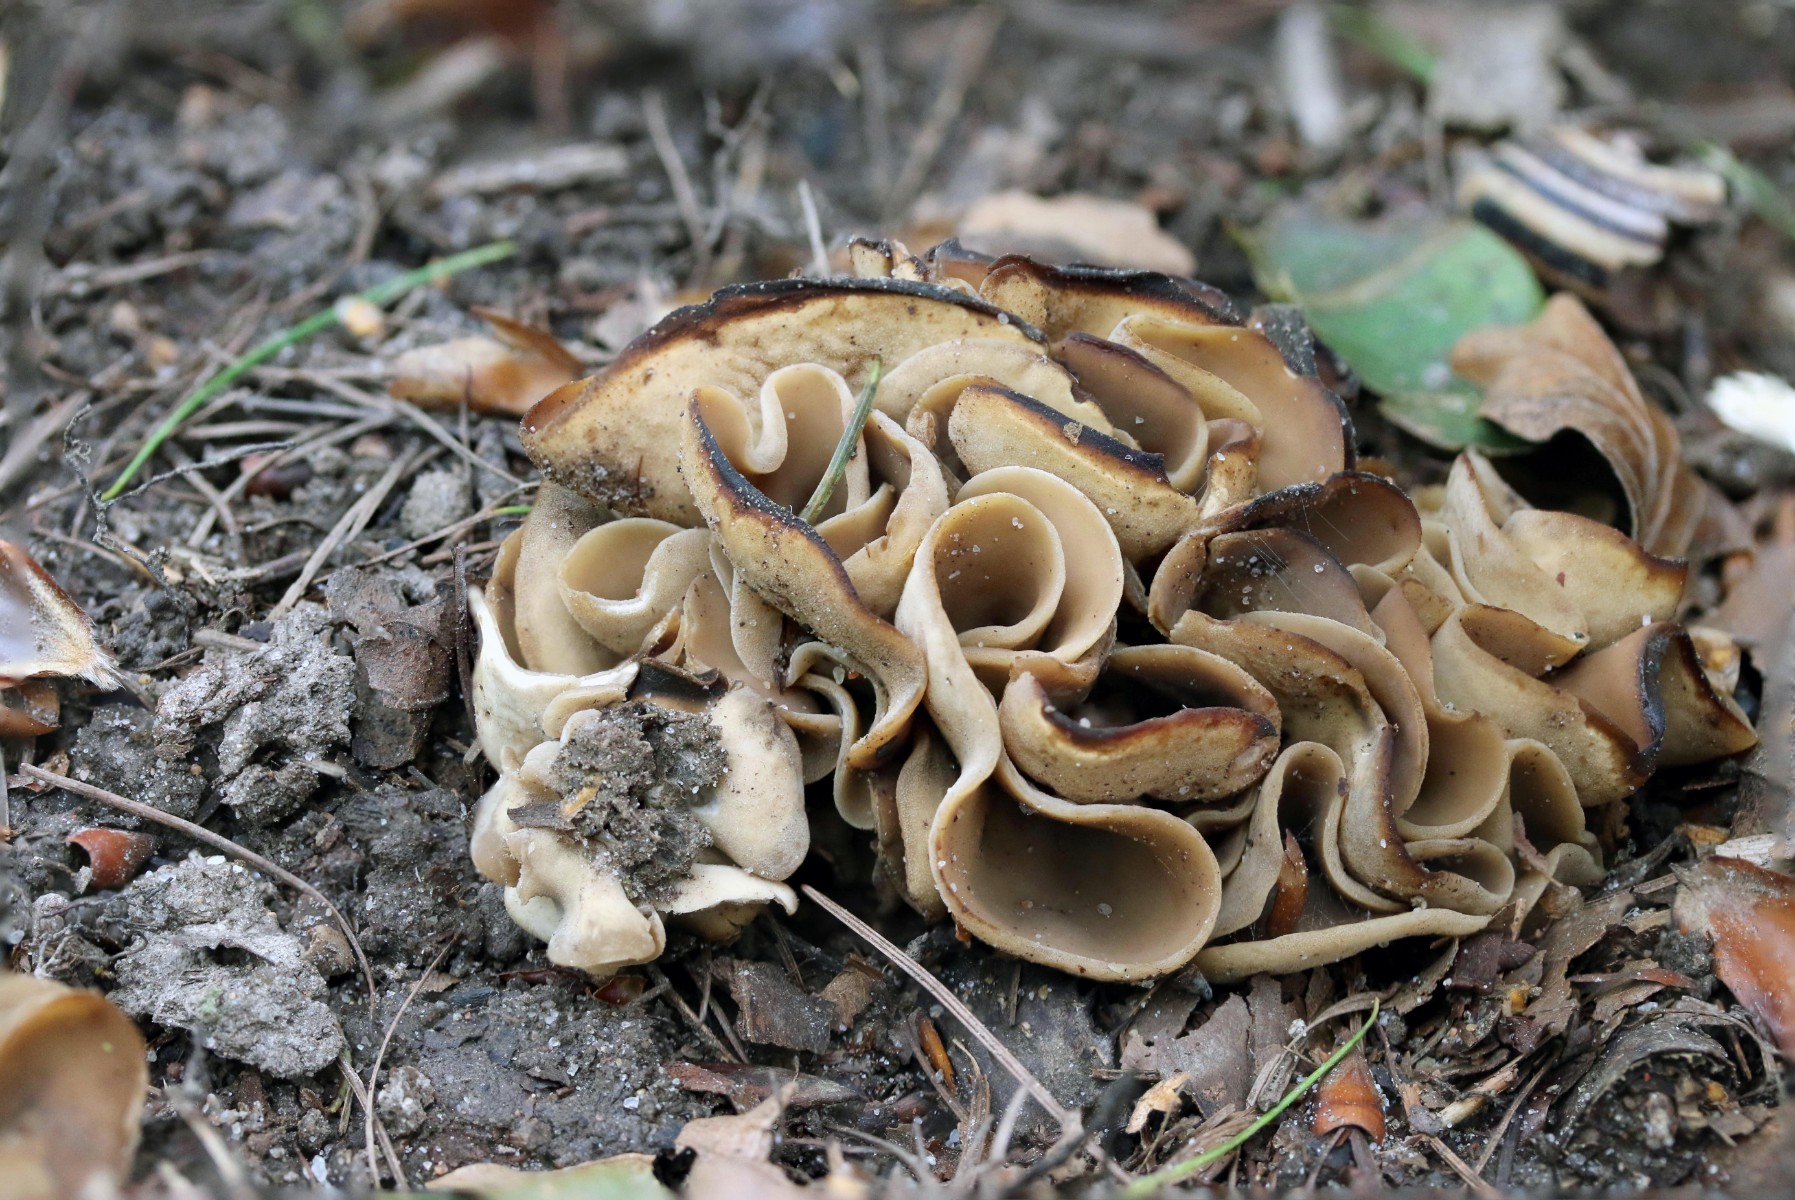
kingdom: Fungi
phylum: Ascomycota
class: Pezizomycetes
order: Pezizales
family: Otideaceae
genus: Otidea
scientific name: Otidea alutacea
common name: læder-ørebæger
